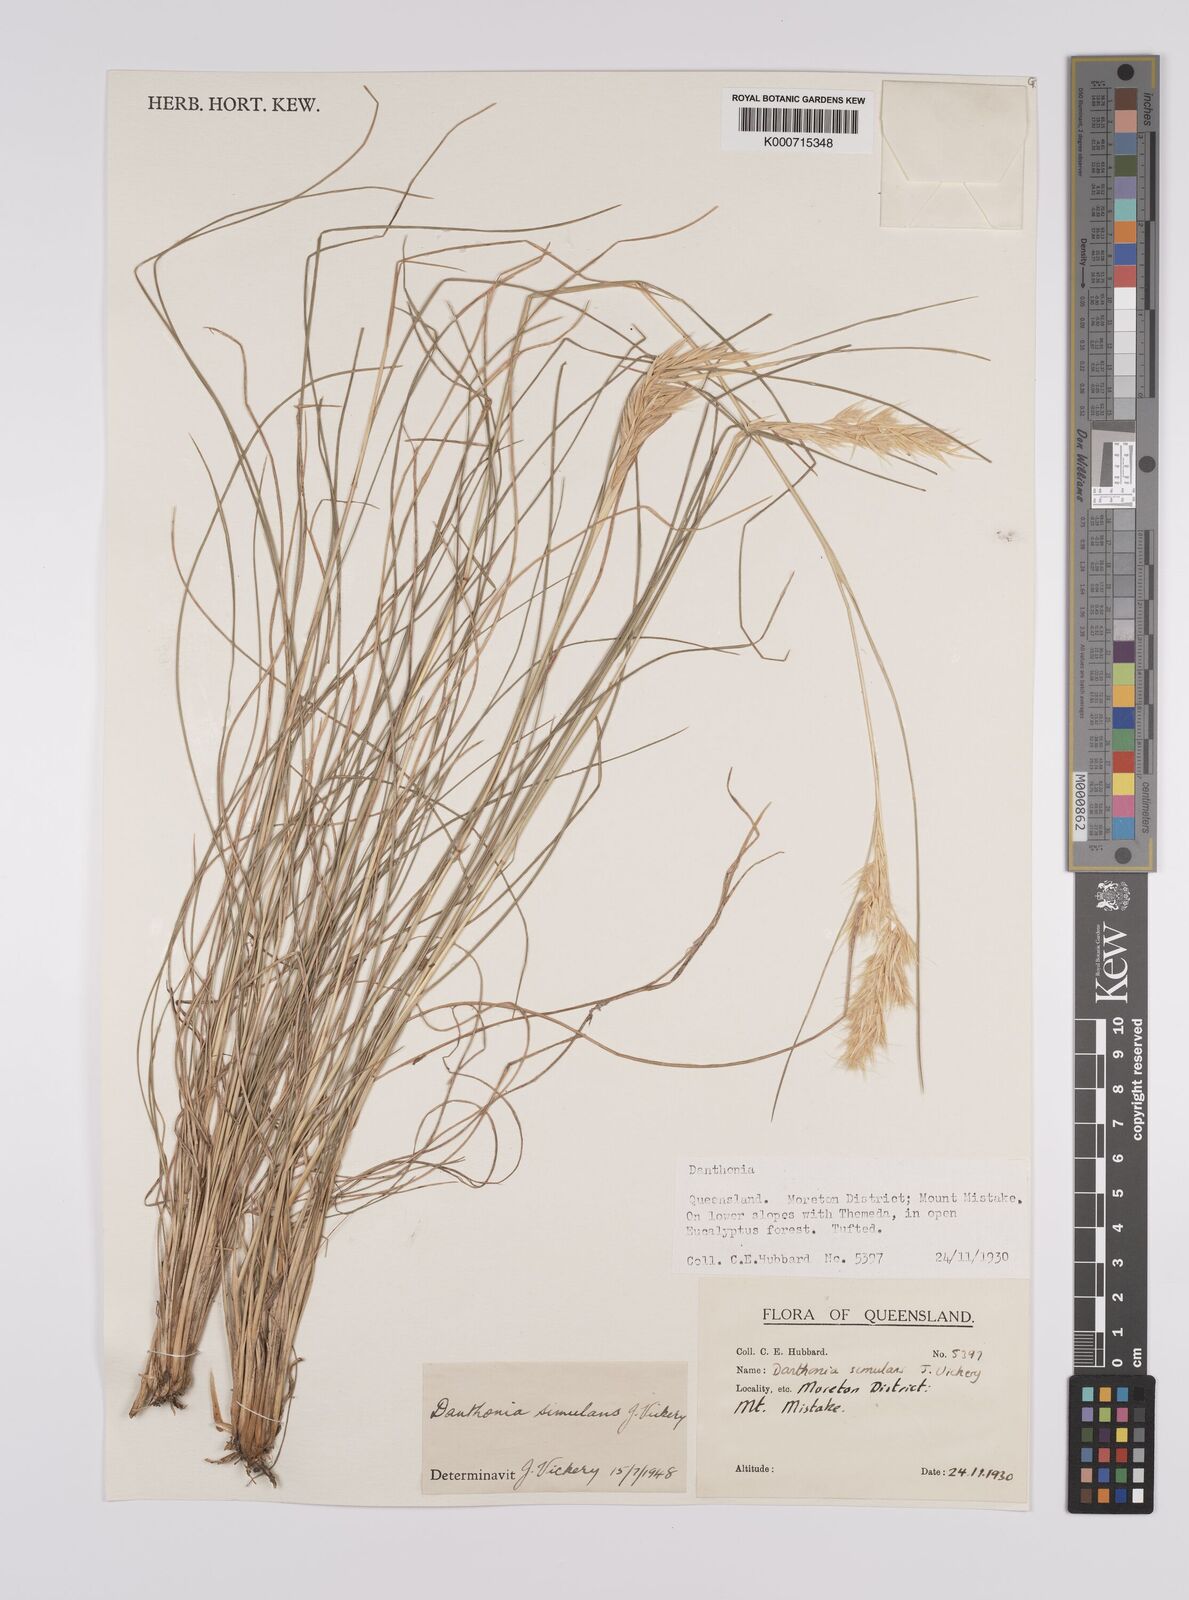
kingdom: Plantae
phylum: Tracheophyta
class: Liliopsida
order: Poales
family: Poaceae
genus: Rytidosperma
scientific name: Rytidosperma bipartitum
